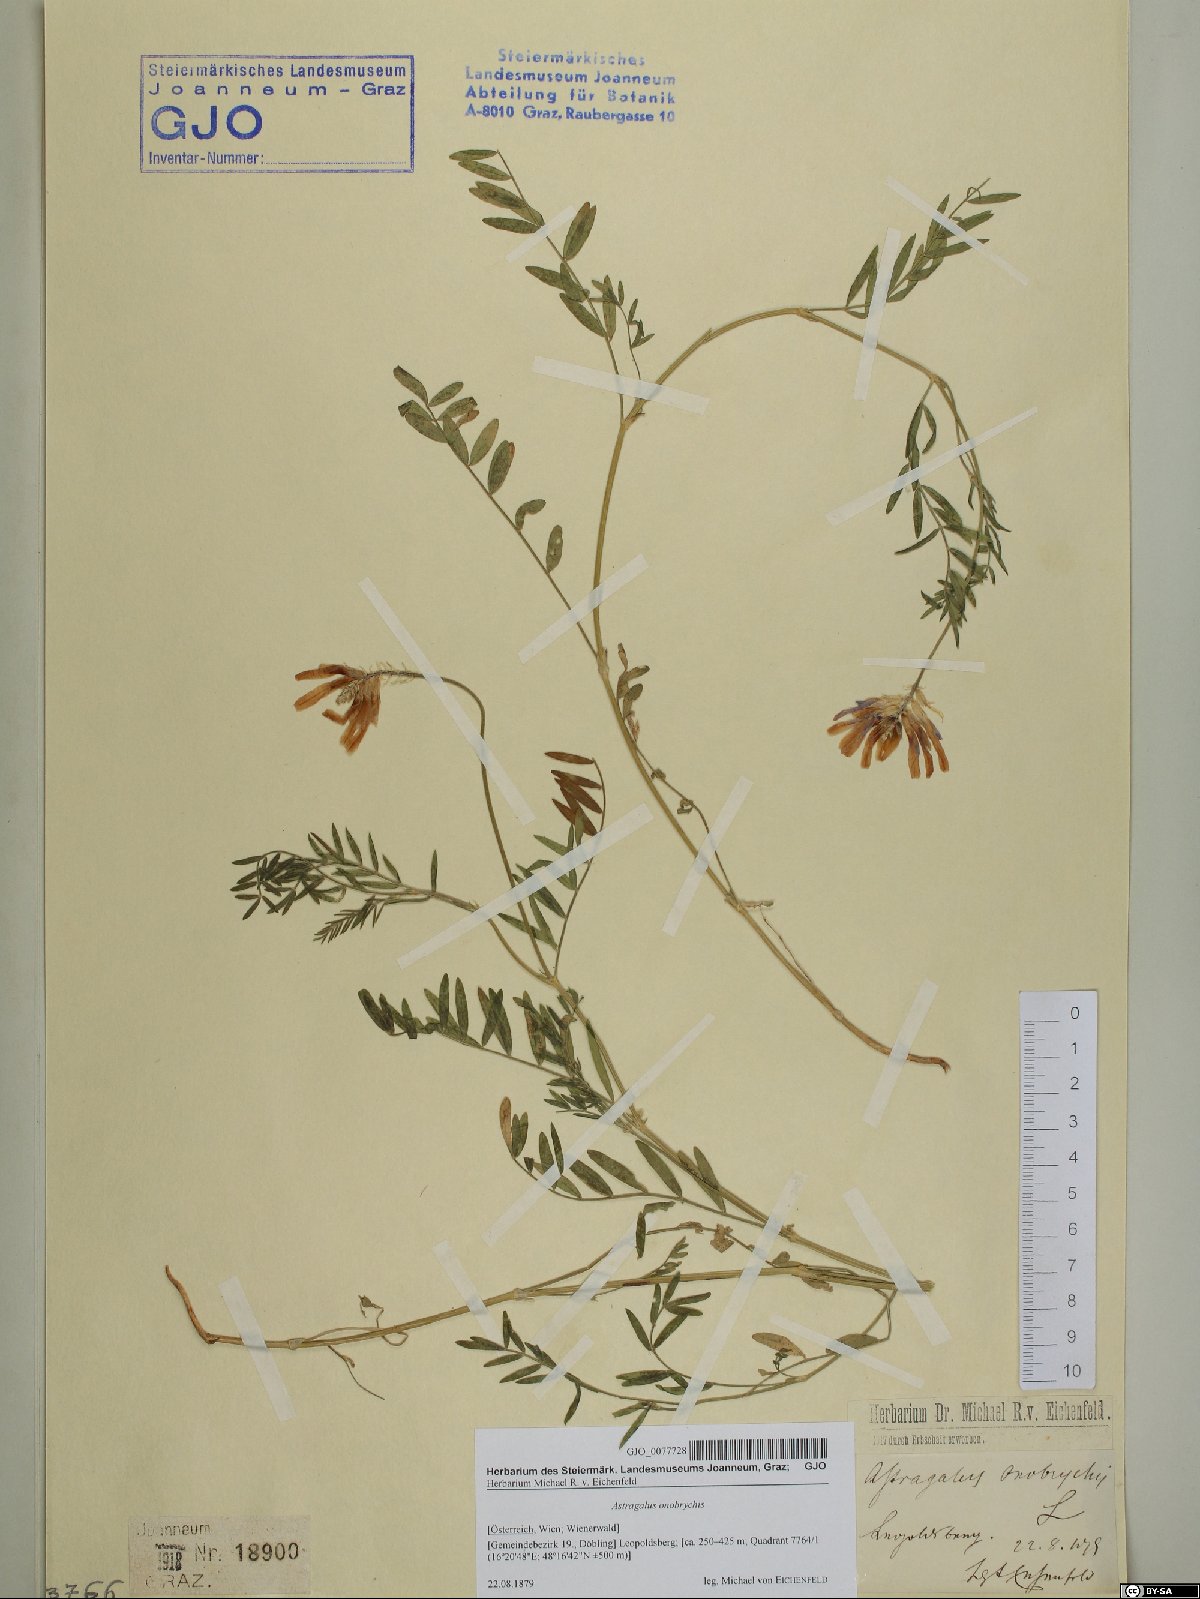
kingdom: Plantae
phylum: Tracheophyta
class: Magnoliopsida
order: Fabales
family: Fabaceae
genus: Astragalus
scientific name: Astragalus onobrychis
